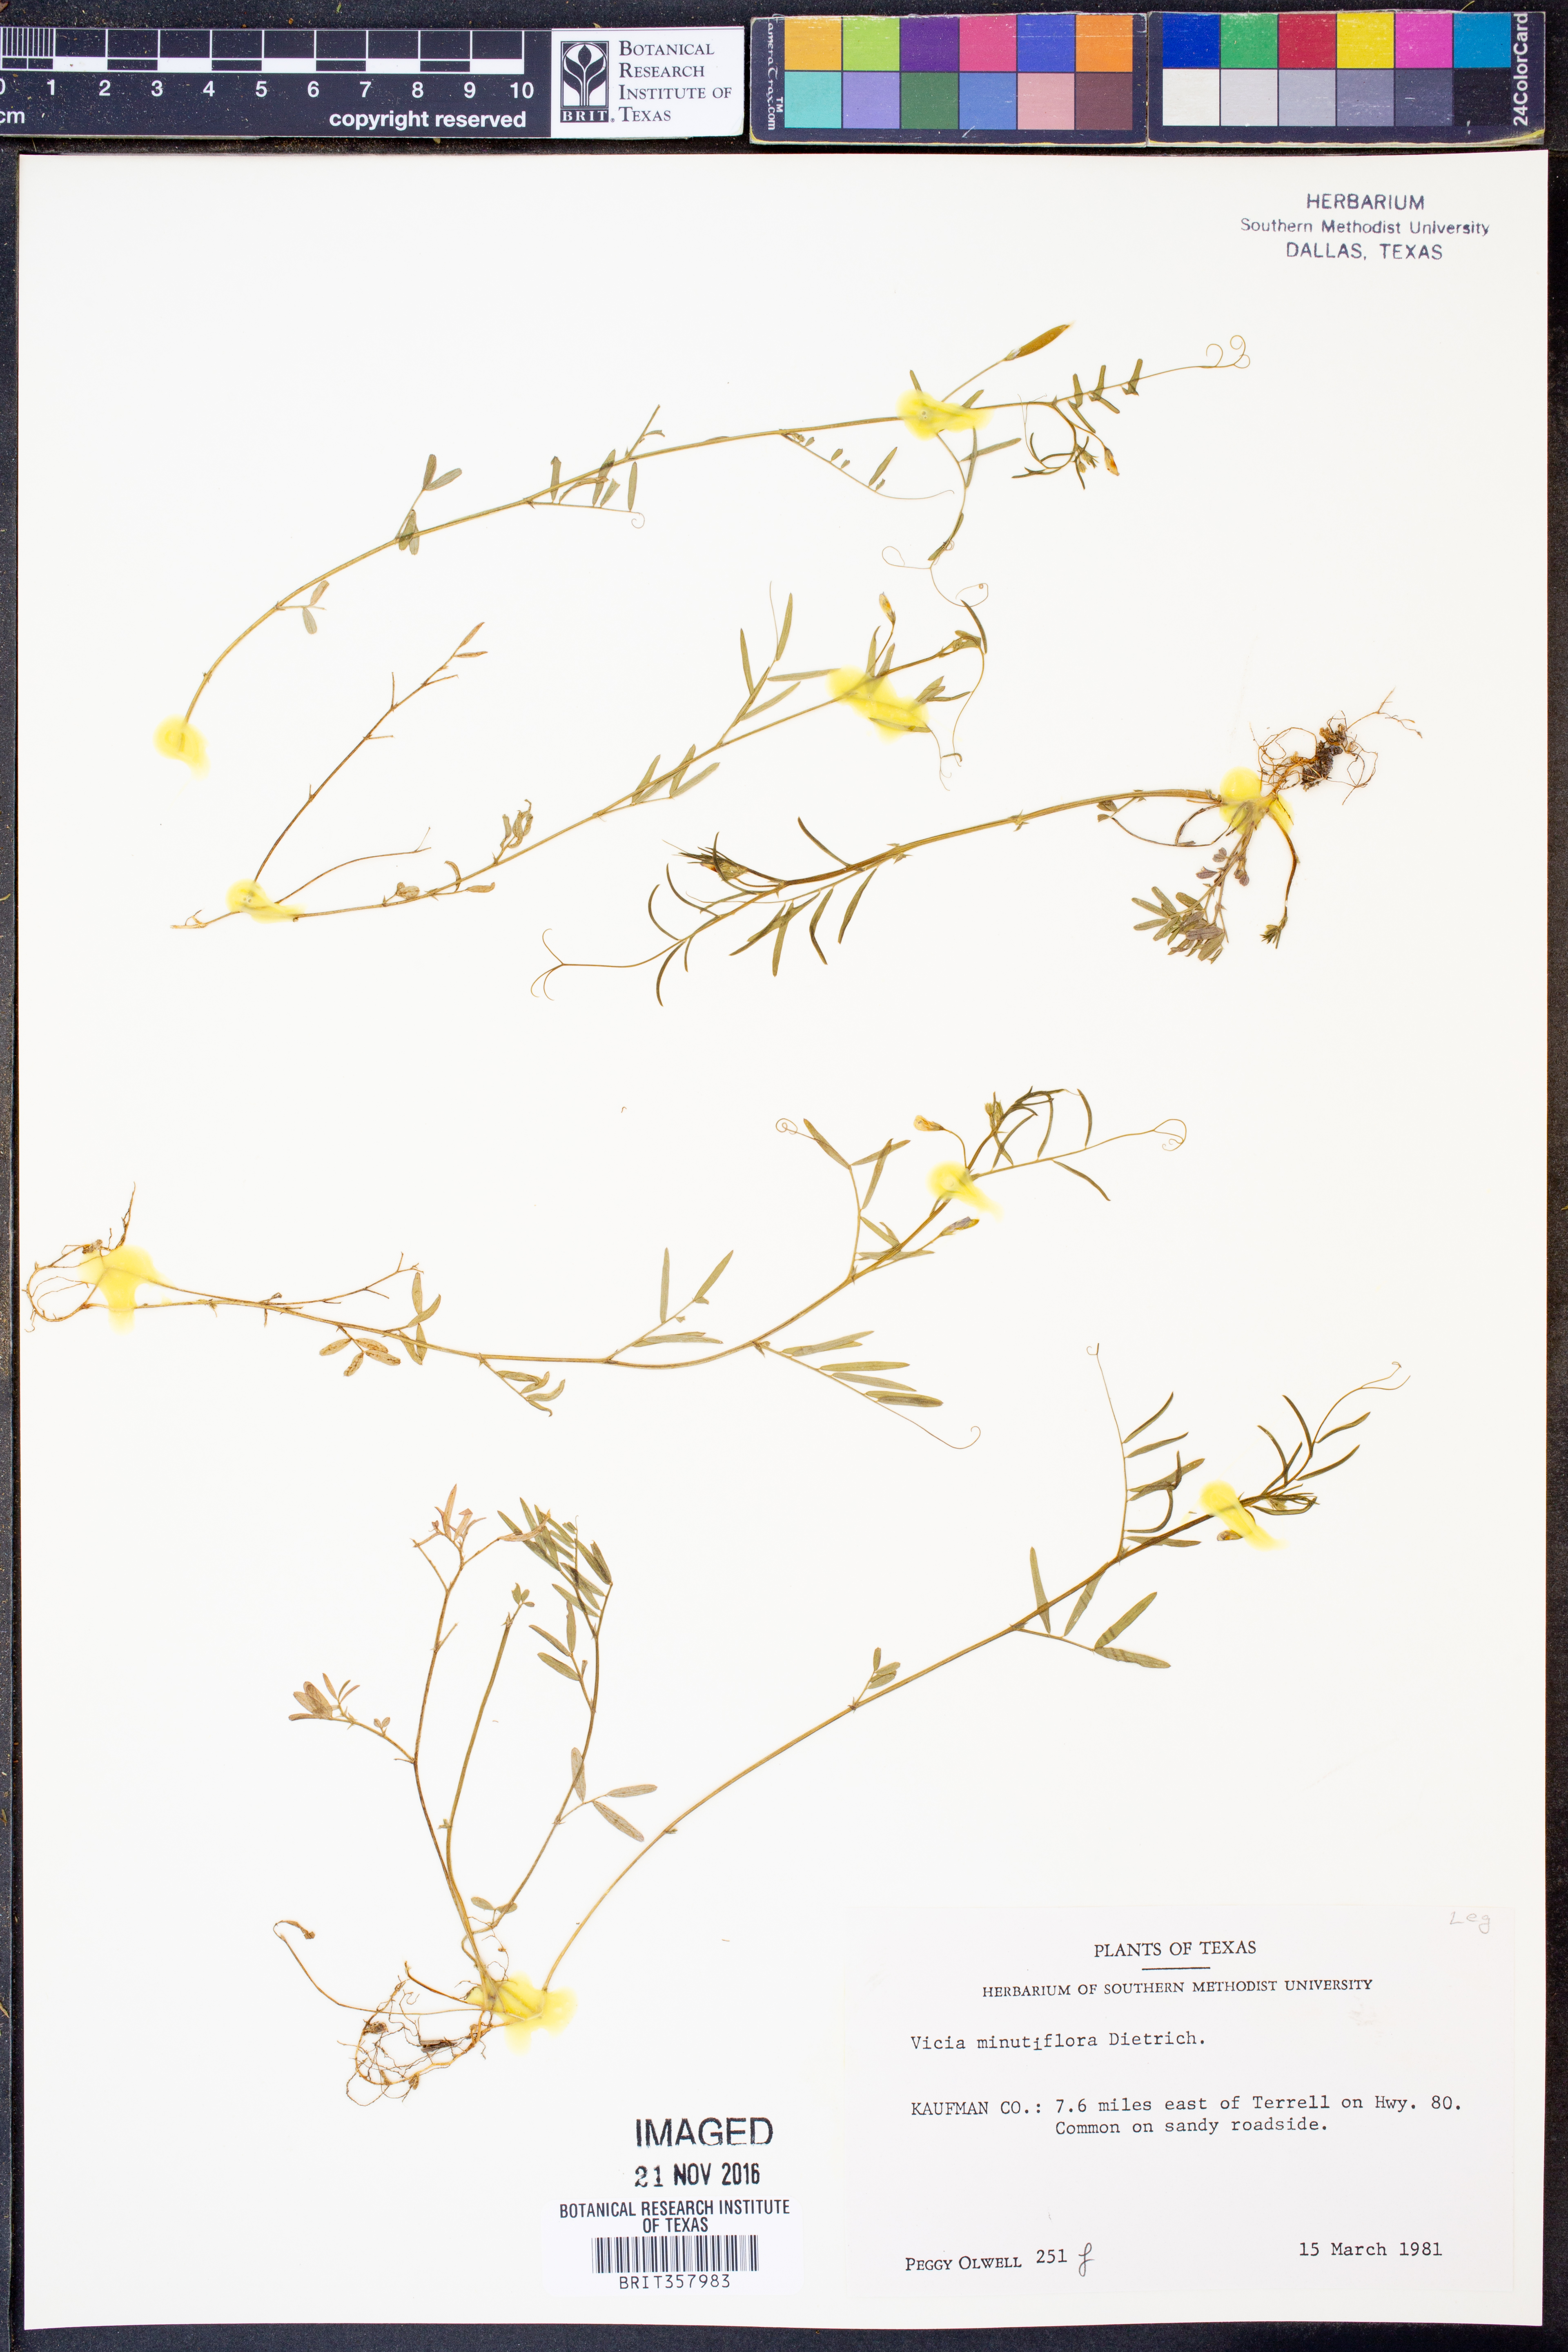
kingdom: Plantae
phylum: Tracheophyta
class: Magnoliopsida
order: Fabales
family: Fabaceae
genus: Vicia
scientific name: Vicia minutiflora
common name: Pygmy-flower vetch
